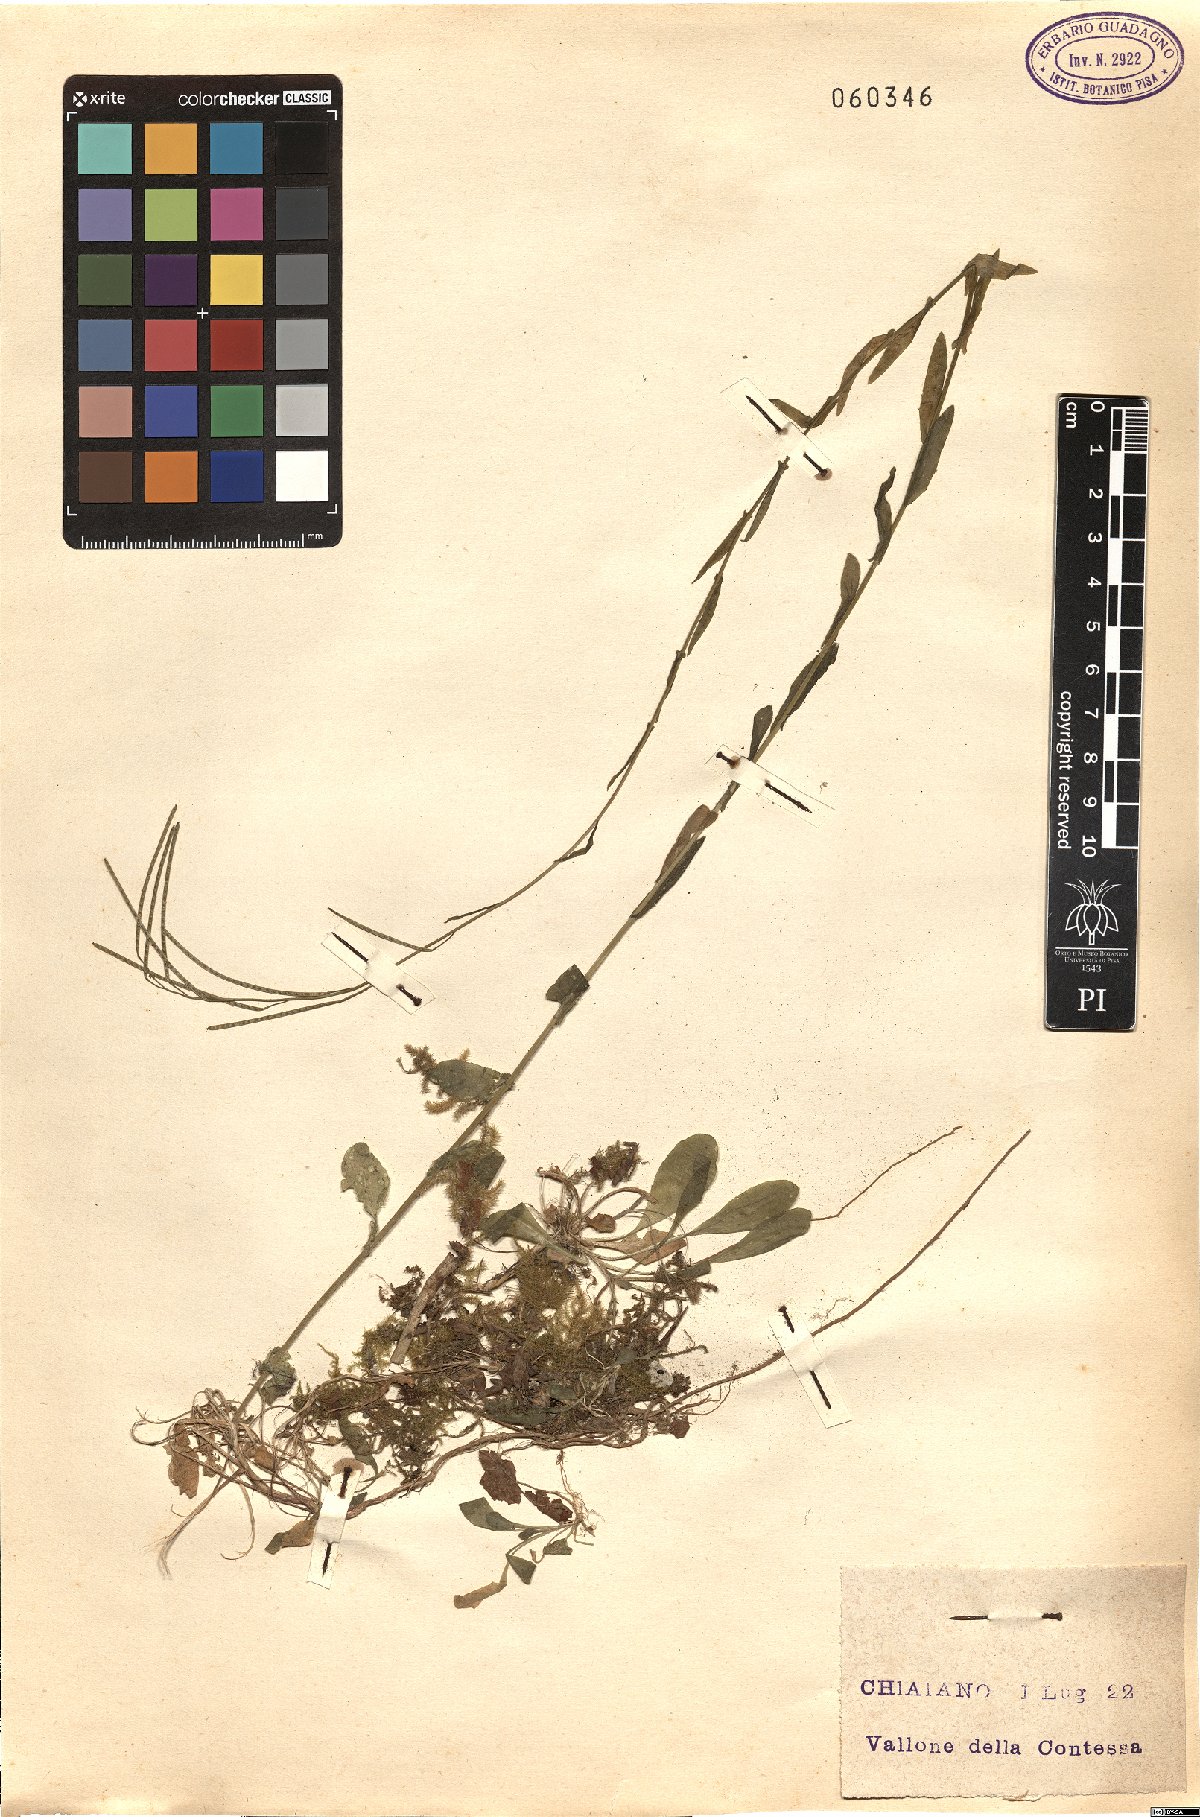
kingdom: Plantae
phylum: Tracheophyta
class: Magnoliopsida
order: Brassicales
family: Brassicaceae
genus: Arabis
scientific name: Arabis
